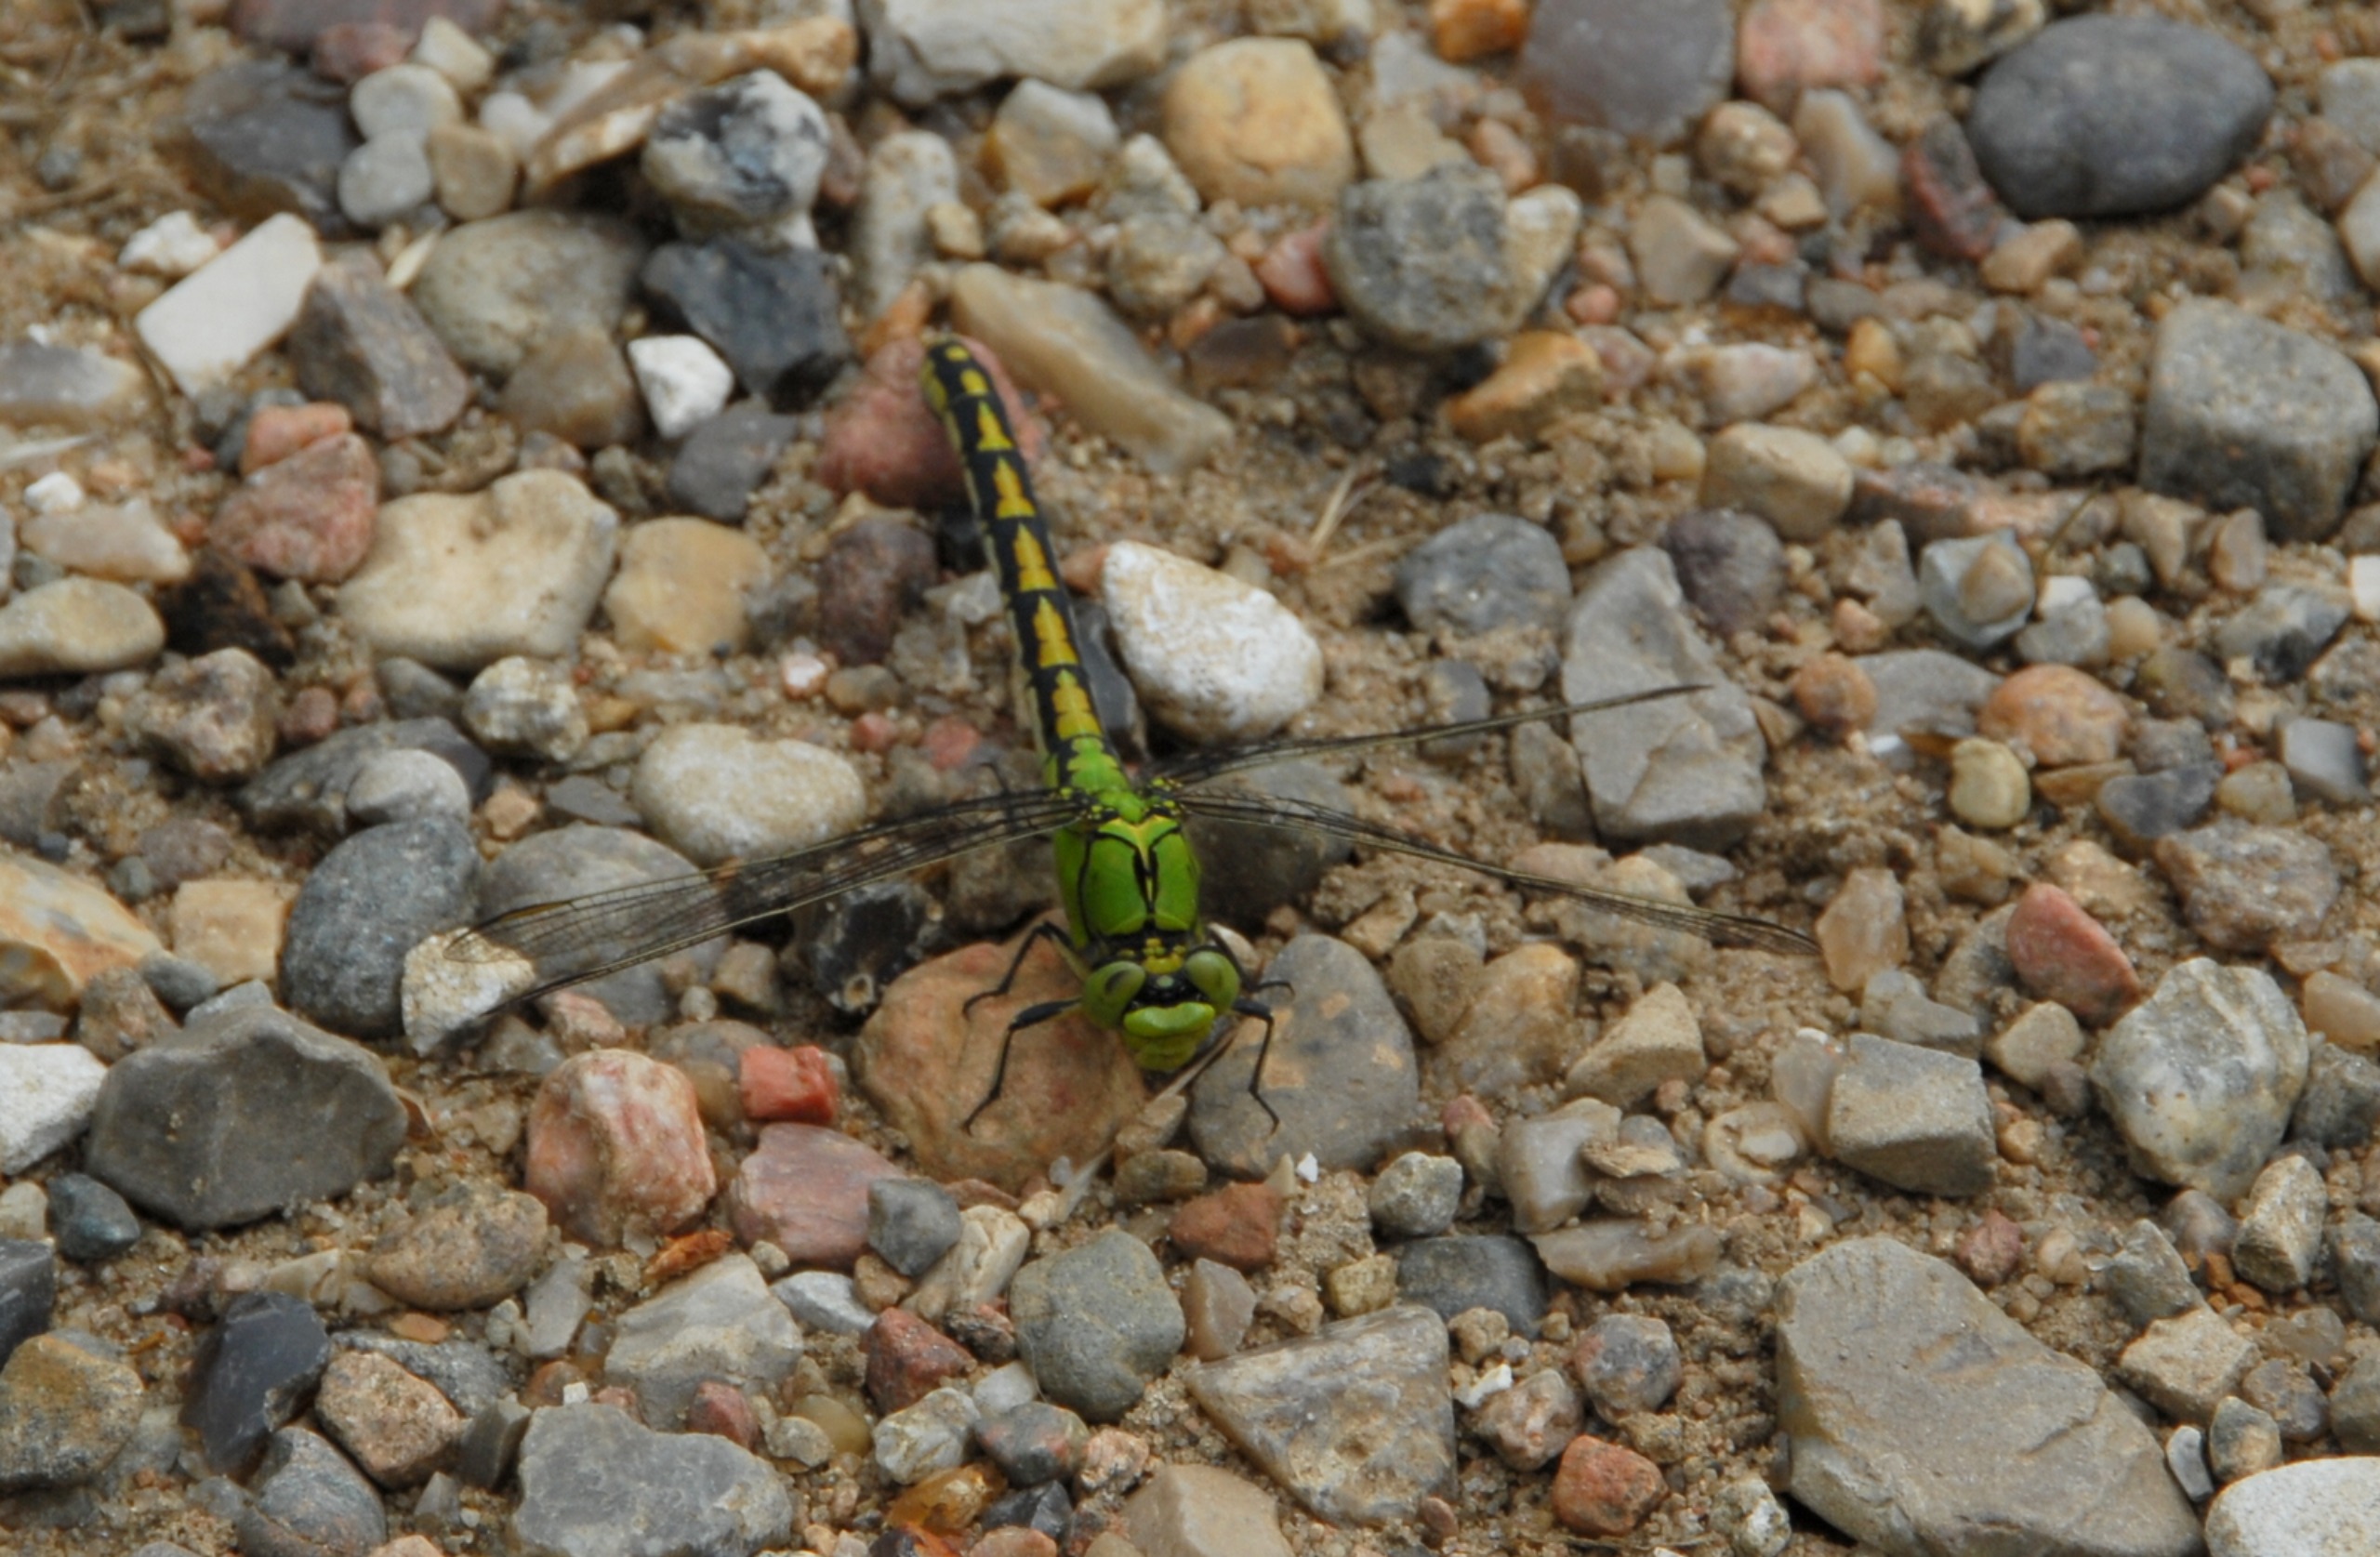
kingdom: Animalia
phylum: Arthropoda
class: Insecta
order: Odonata
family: Gomphidae
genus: Ophiogomphus
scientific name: Ophiogomphus cecilia
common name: Grøn kølleguldsmed
